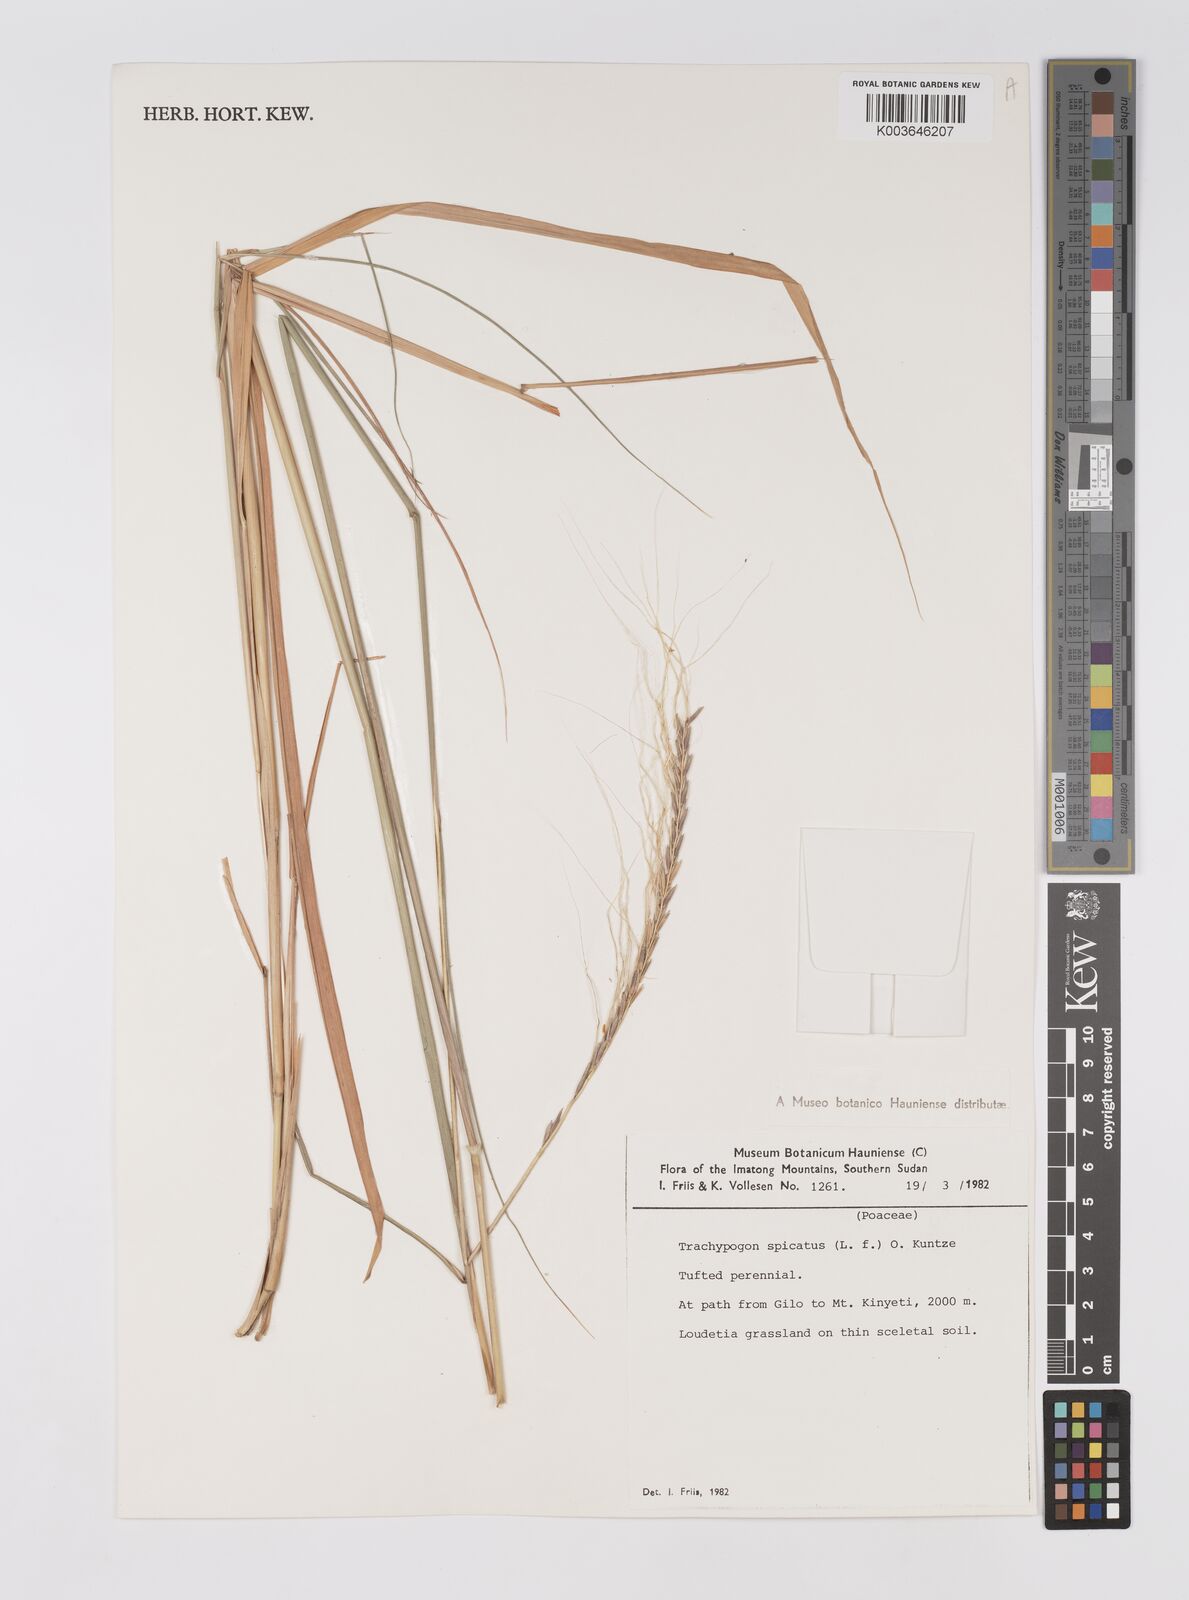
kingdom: Plantae
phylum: Tracheophyta
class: Liliopsida
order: Poales
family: Poaceae
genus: Trachypogon
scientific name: Trachypogon spicatus
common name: Crinkle-awn
